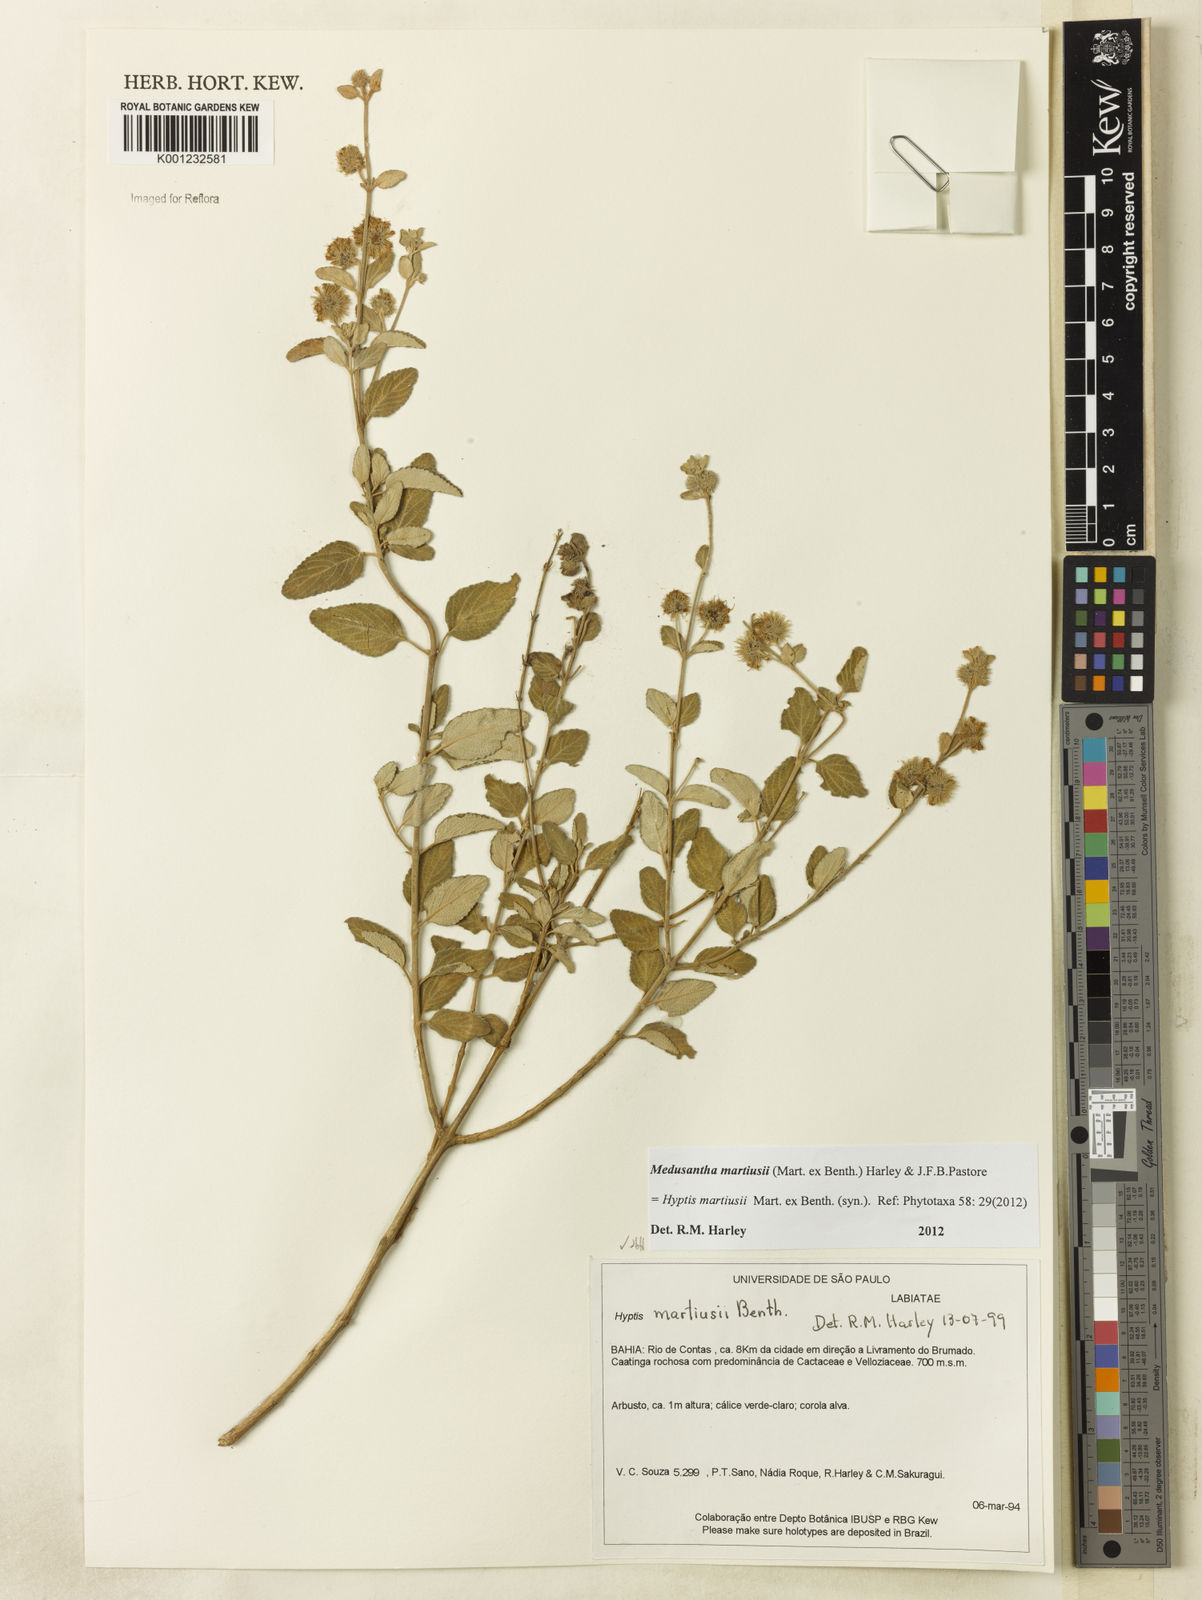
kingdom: Plantae
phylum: Tracheophyta
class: Magnoliopsida
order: Lamiales
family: Lamiaceae
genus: Medusantha
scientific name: Medusantha martiusii
